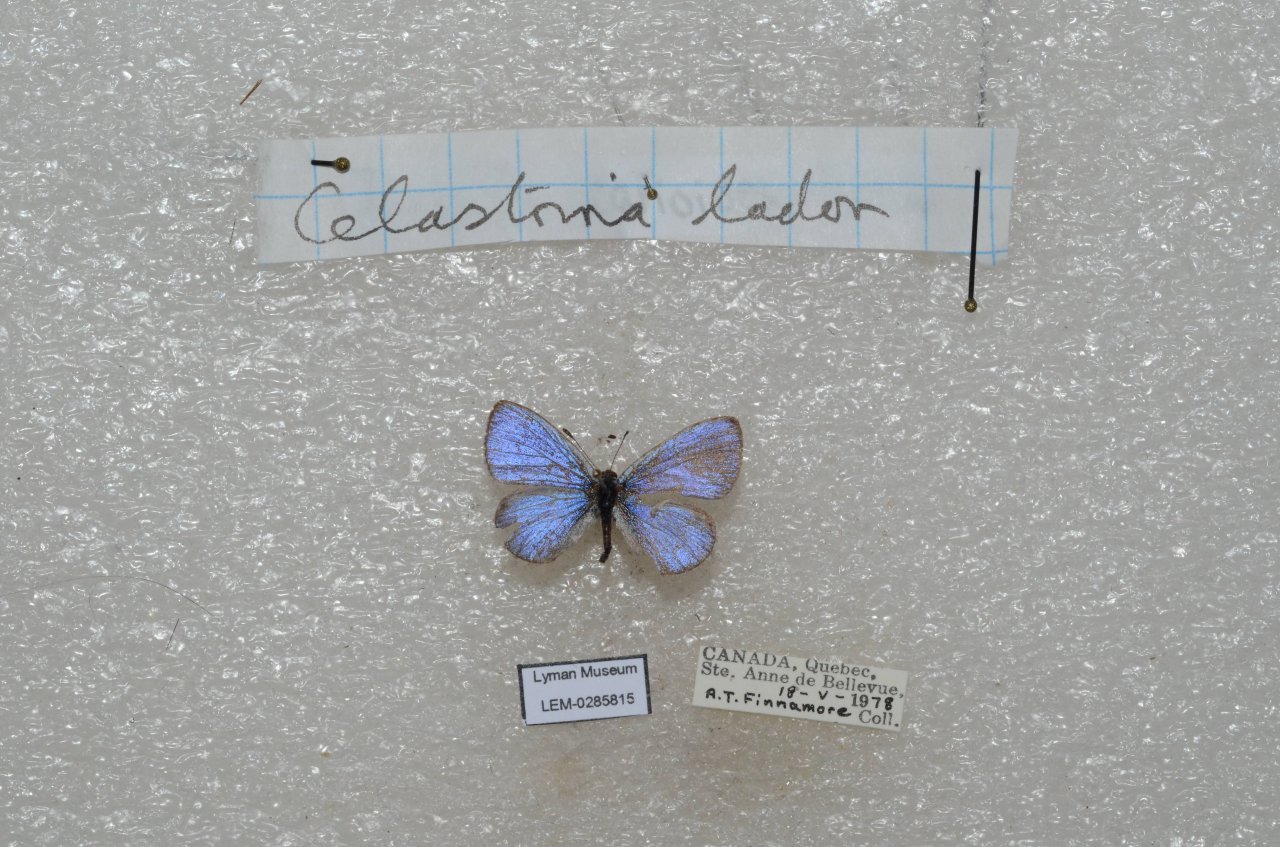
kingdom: Animalia
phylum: Arthropoda
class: Insecta
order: Lepidoptera
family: Lycaenidae
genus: Celastrina
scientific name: Celastrina lucia
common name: Northern Spring Azure
